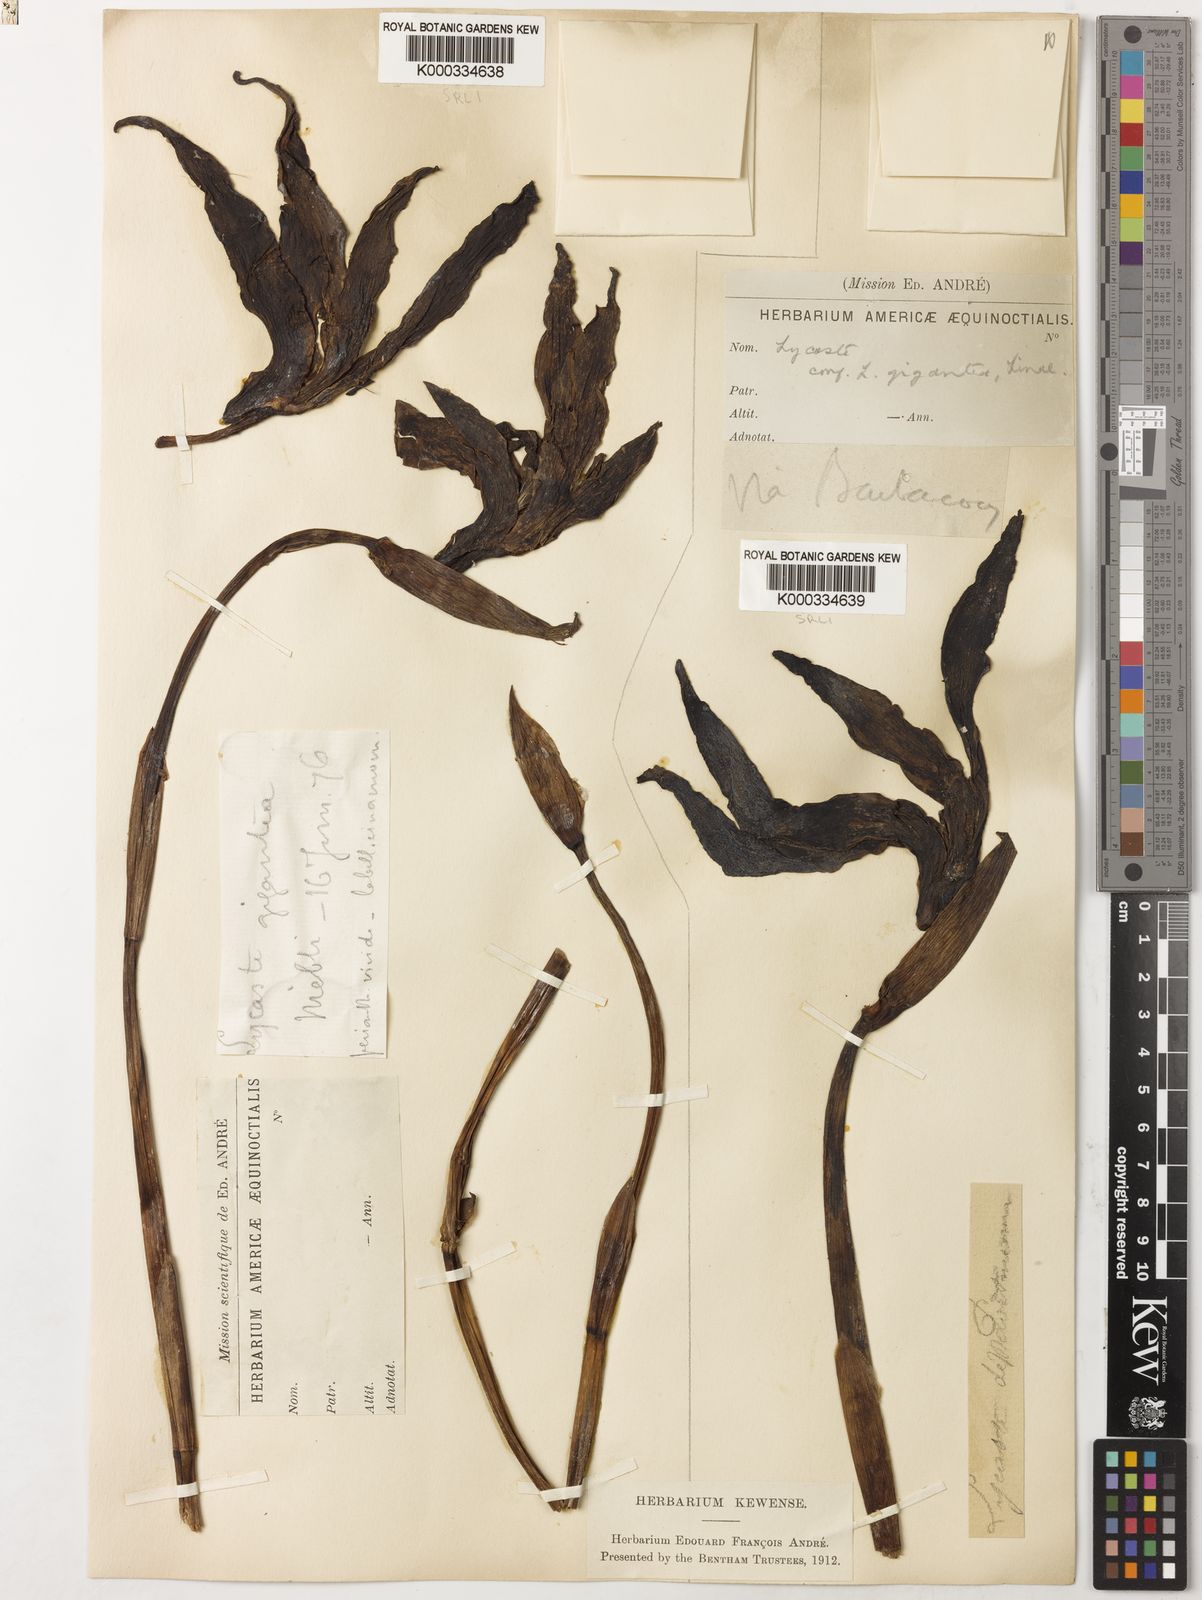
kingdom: Plantae
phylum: Tracheophyta
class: Liliopsida
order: Asparagales
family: Orchidaceae
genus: Ida
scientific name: Ida gigantea
